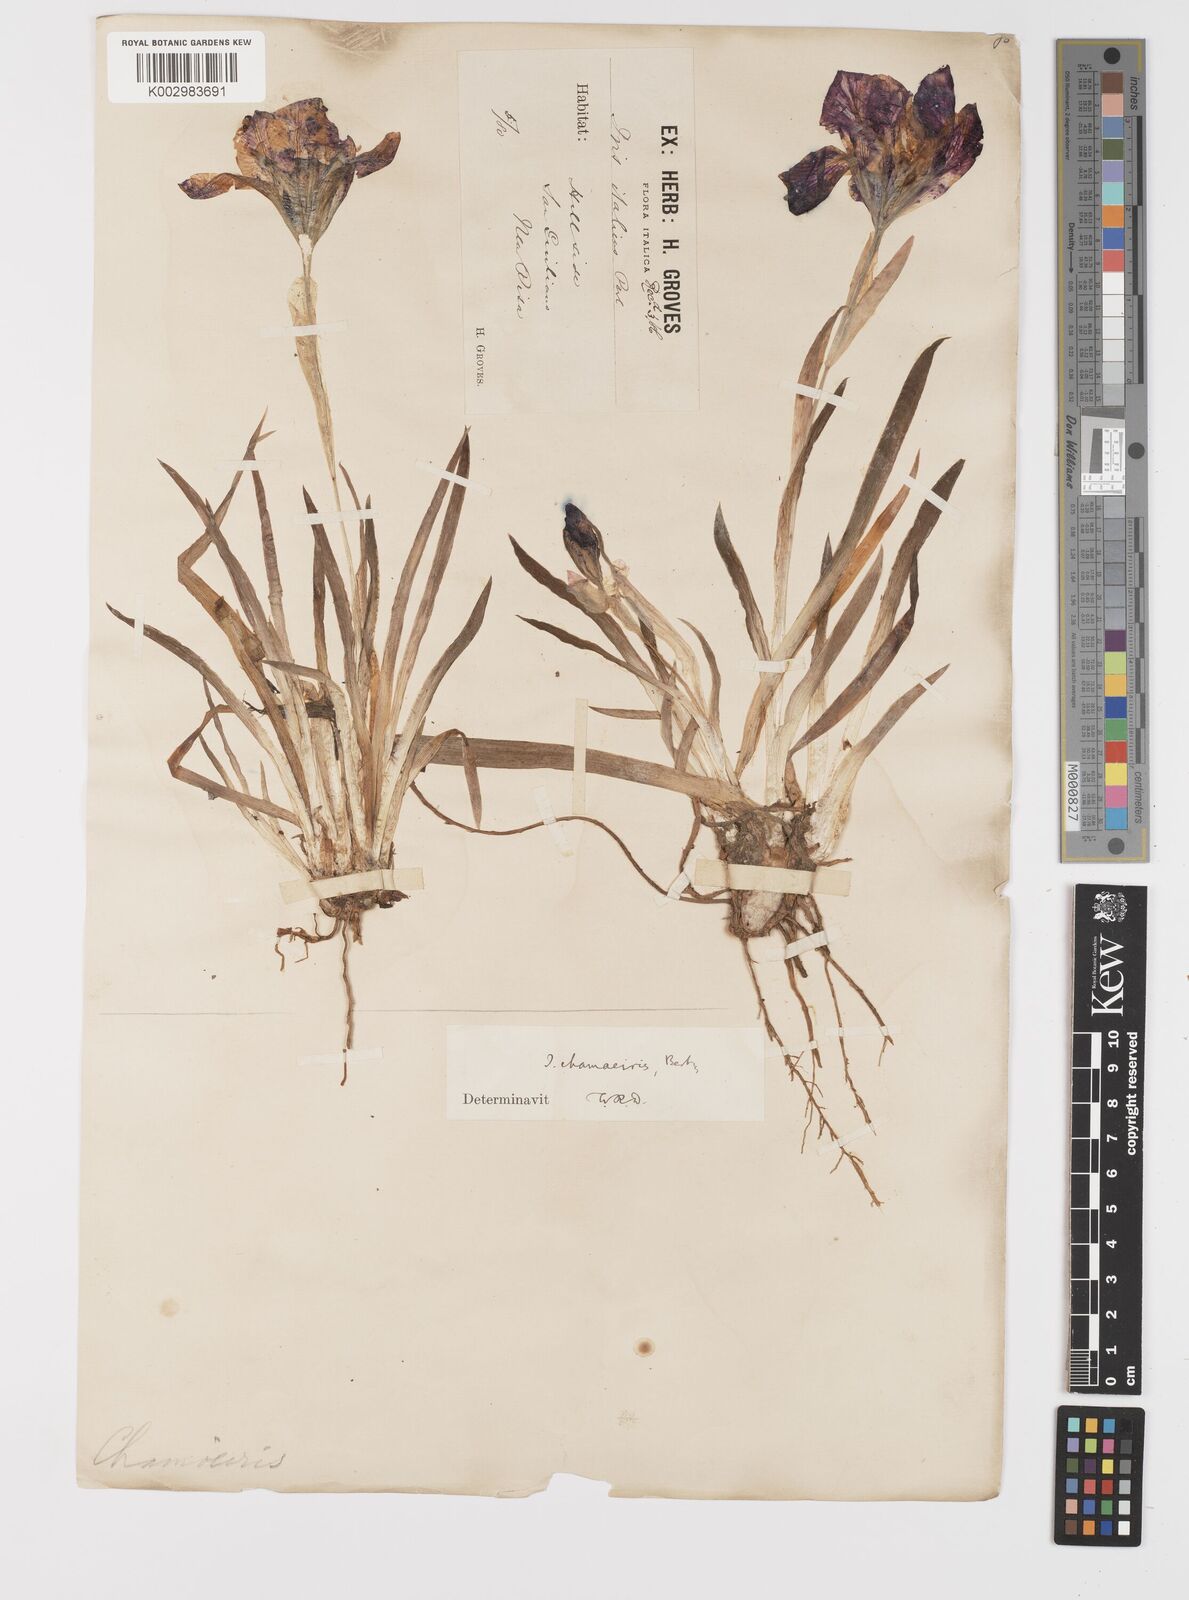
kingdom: Plantae
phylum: Tracheophyta
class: Liliopsida
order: Asparagales
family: Iridaceae
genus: Iris
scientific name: Iris lutescens
